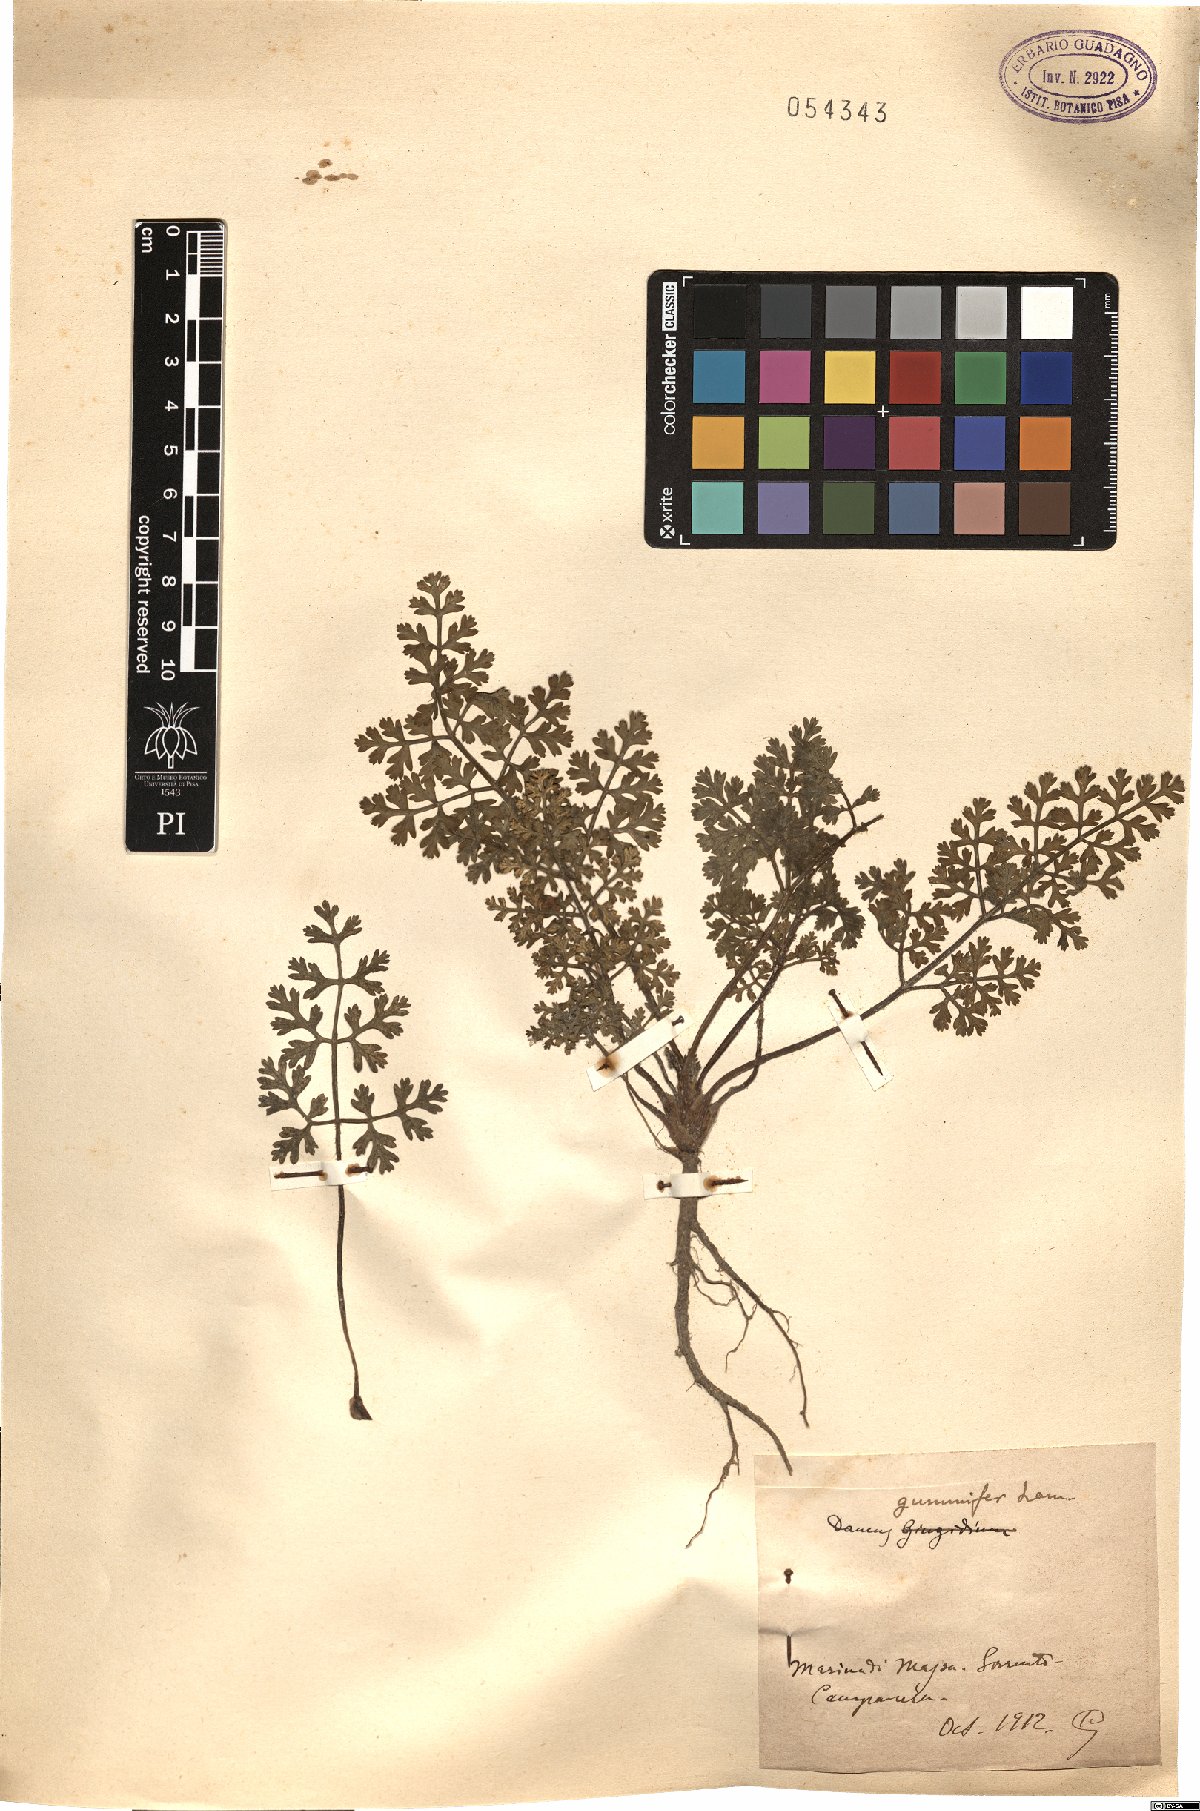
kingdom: Plantae
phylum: Tracheophyta
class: Magnoliopsida
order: Apiales
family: Apiaceae
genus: Daucus
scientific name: Daucus carota
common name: Wild carrot
